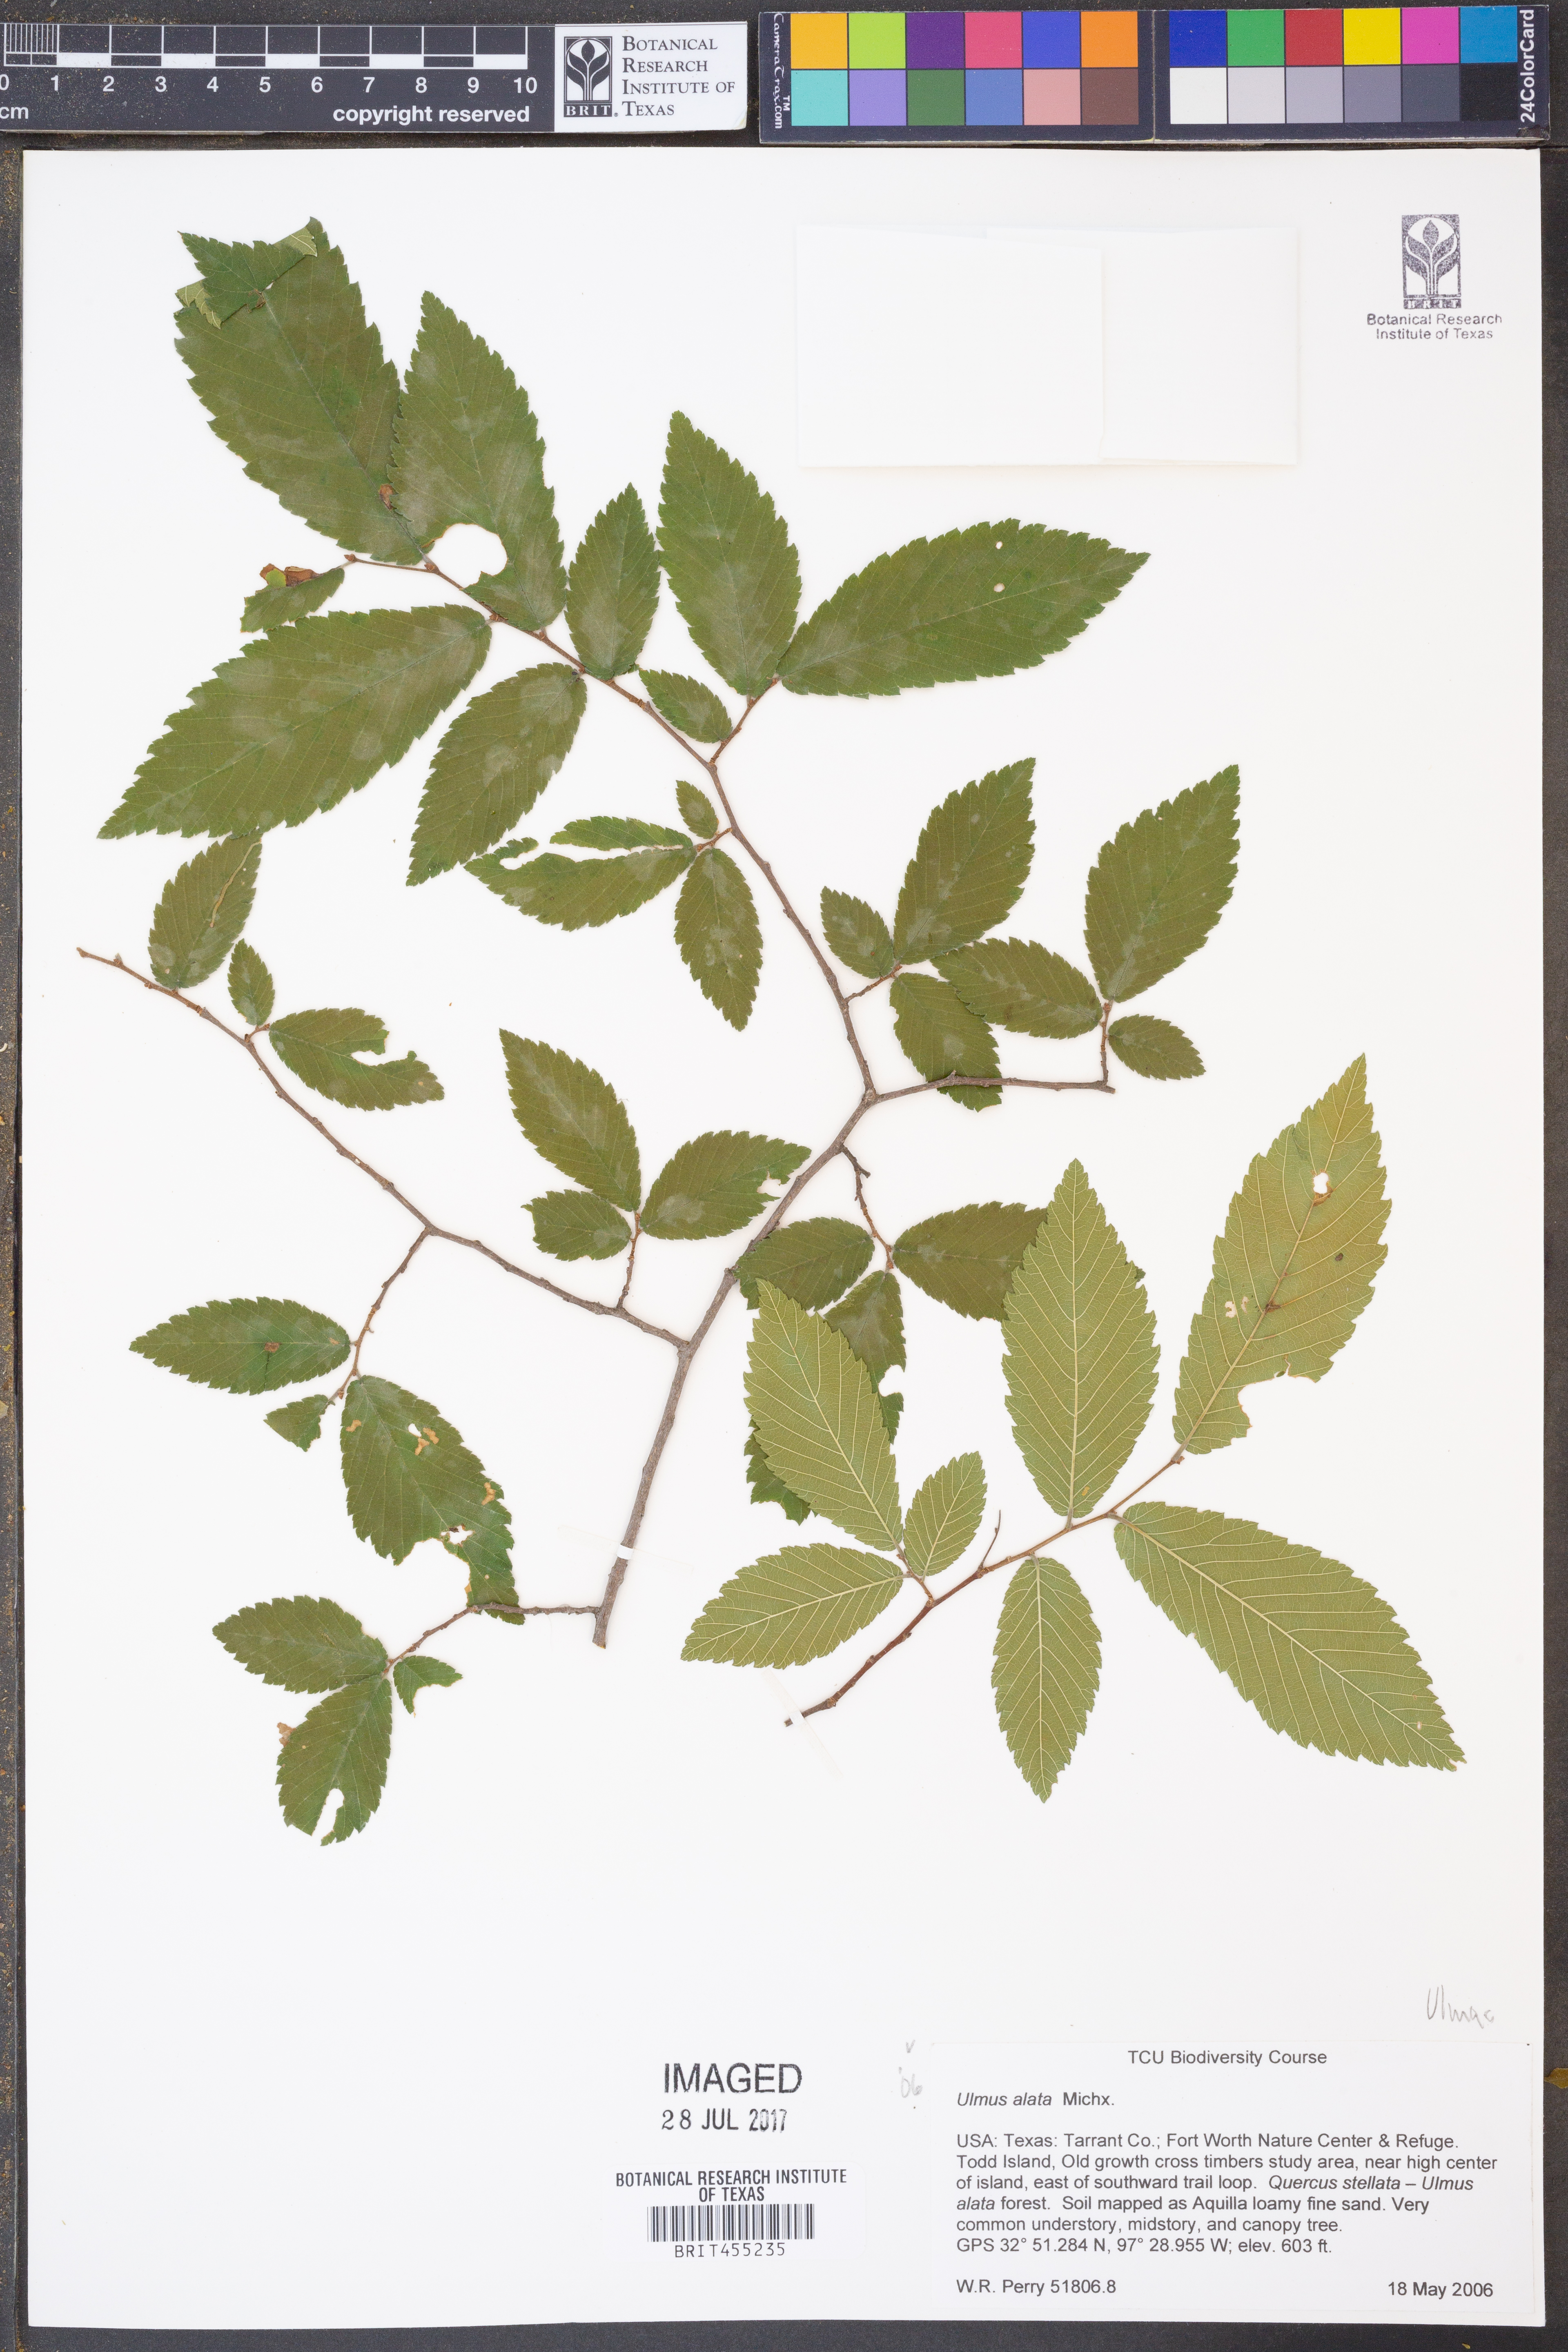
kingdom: Plantae
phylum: Tracheophyta
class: Magnoliopsida
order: Rosales
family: Ulmaceae
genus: Ulmus
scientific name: Ulmus alata
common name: Winged elm
